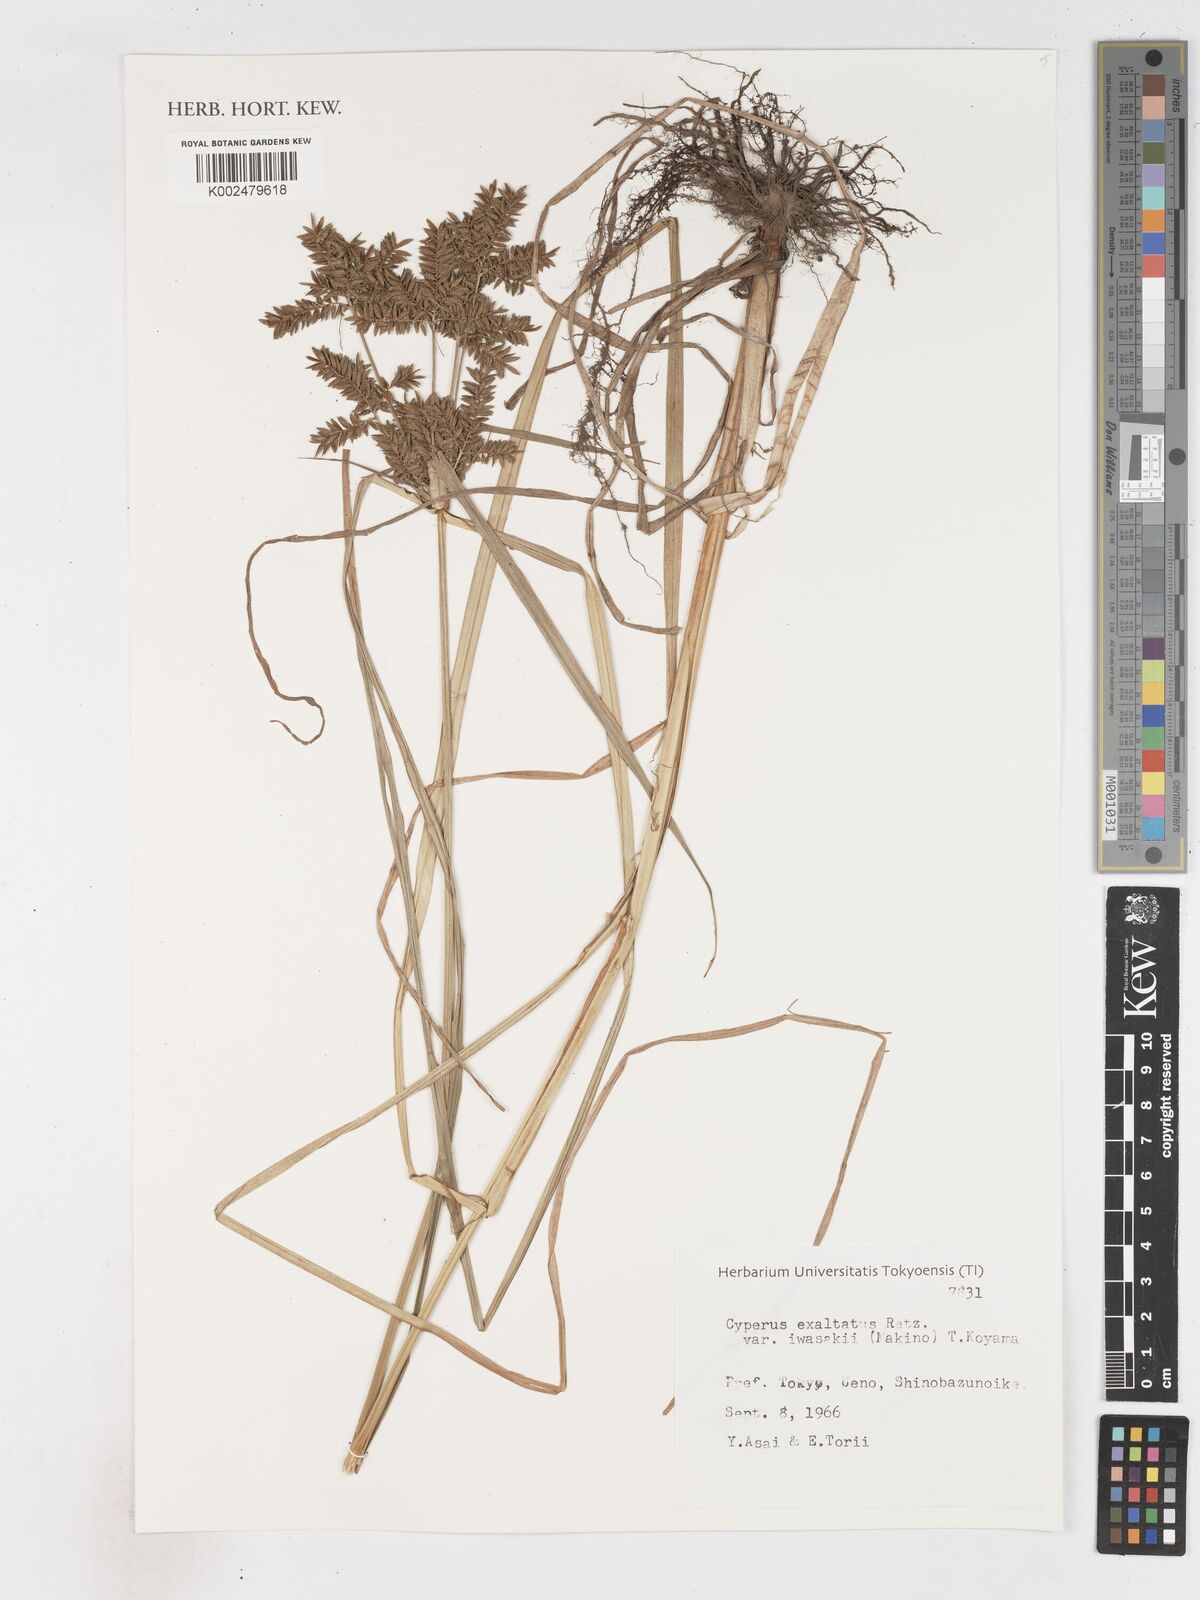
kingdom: Plantae
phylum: Tracheophyta
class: Liliopsida
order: Poales
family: Cyperaceae
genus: Cyperus
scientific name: Cyperus exaltatus
